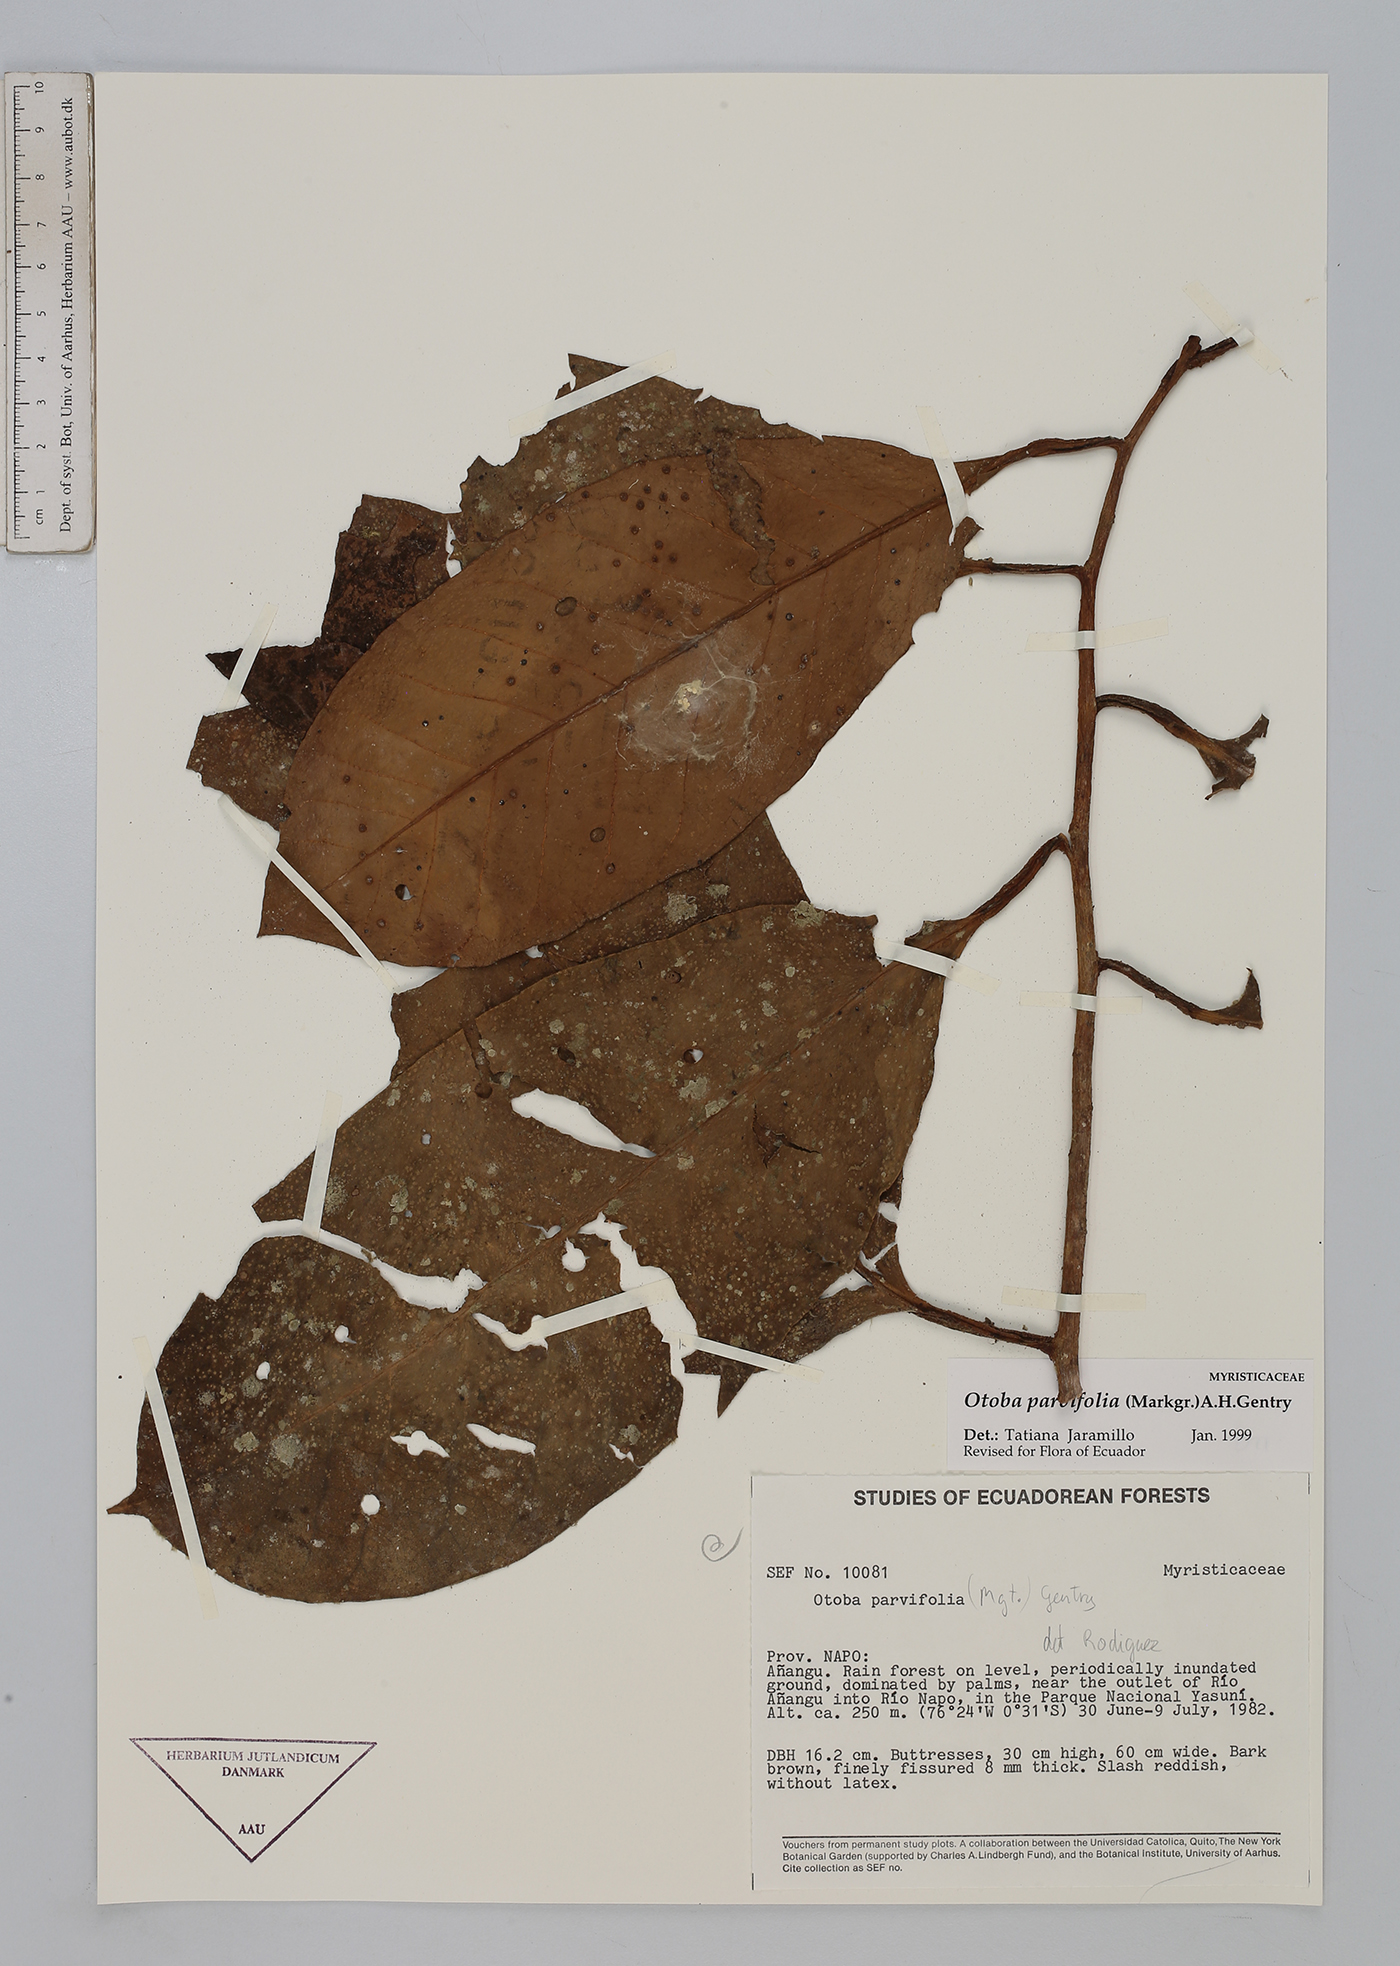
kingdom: Plantae
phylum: Tracheophyta
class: Magnoliopsida
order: Magnoliales
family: Myristicaceae
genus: Otoba
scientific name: Otoba parvifolia
